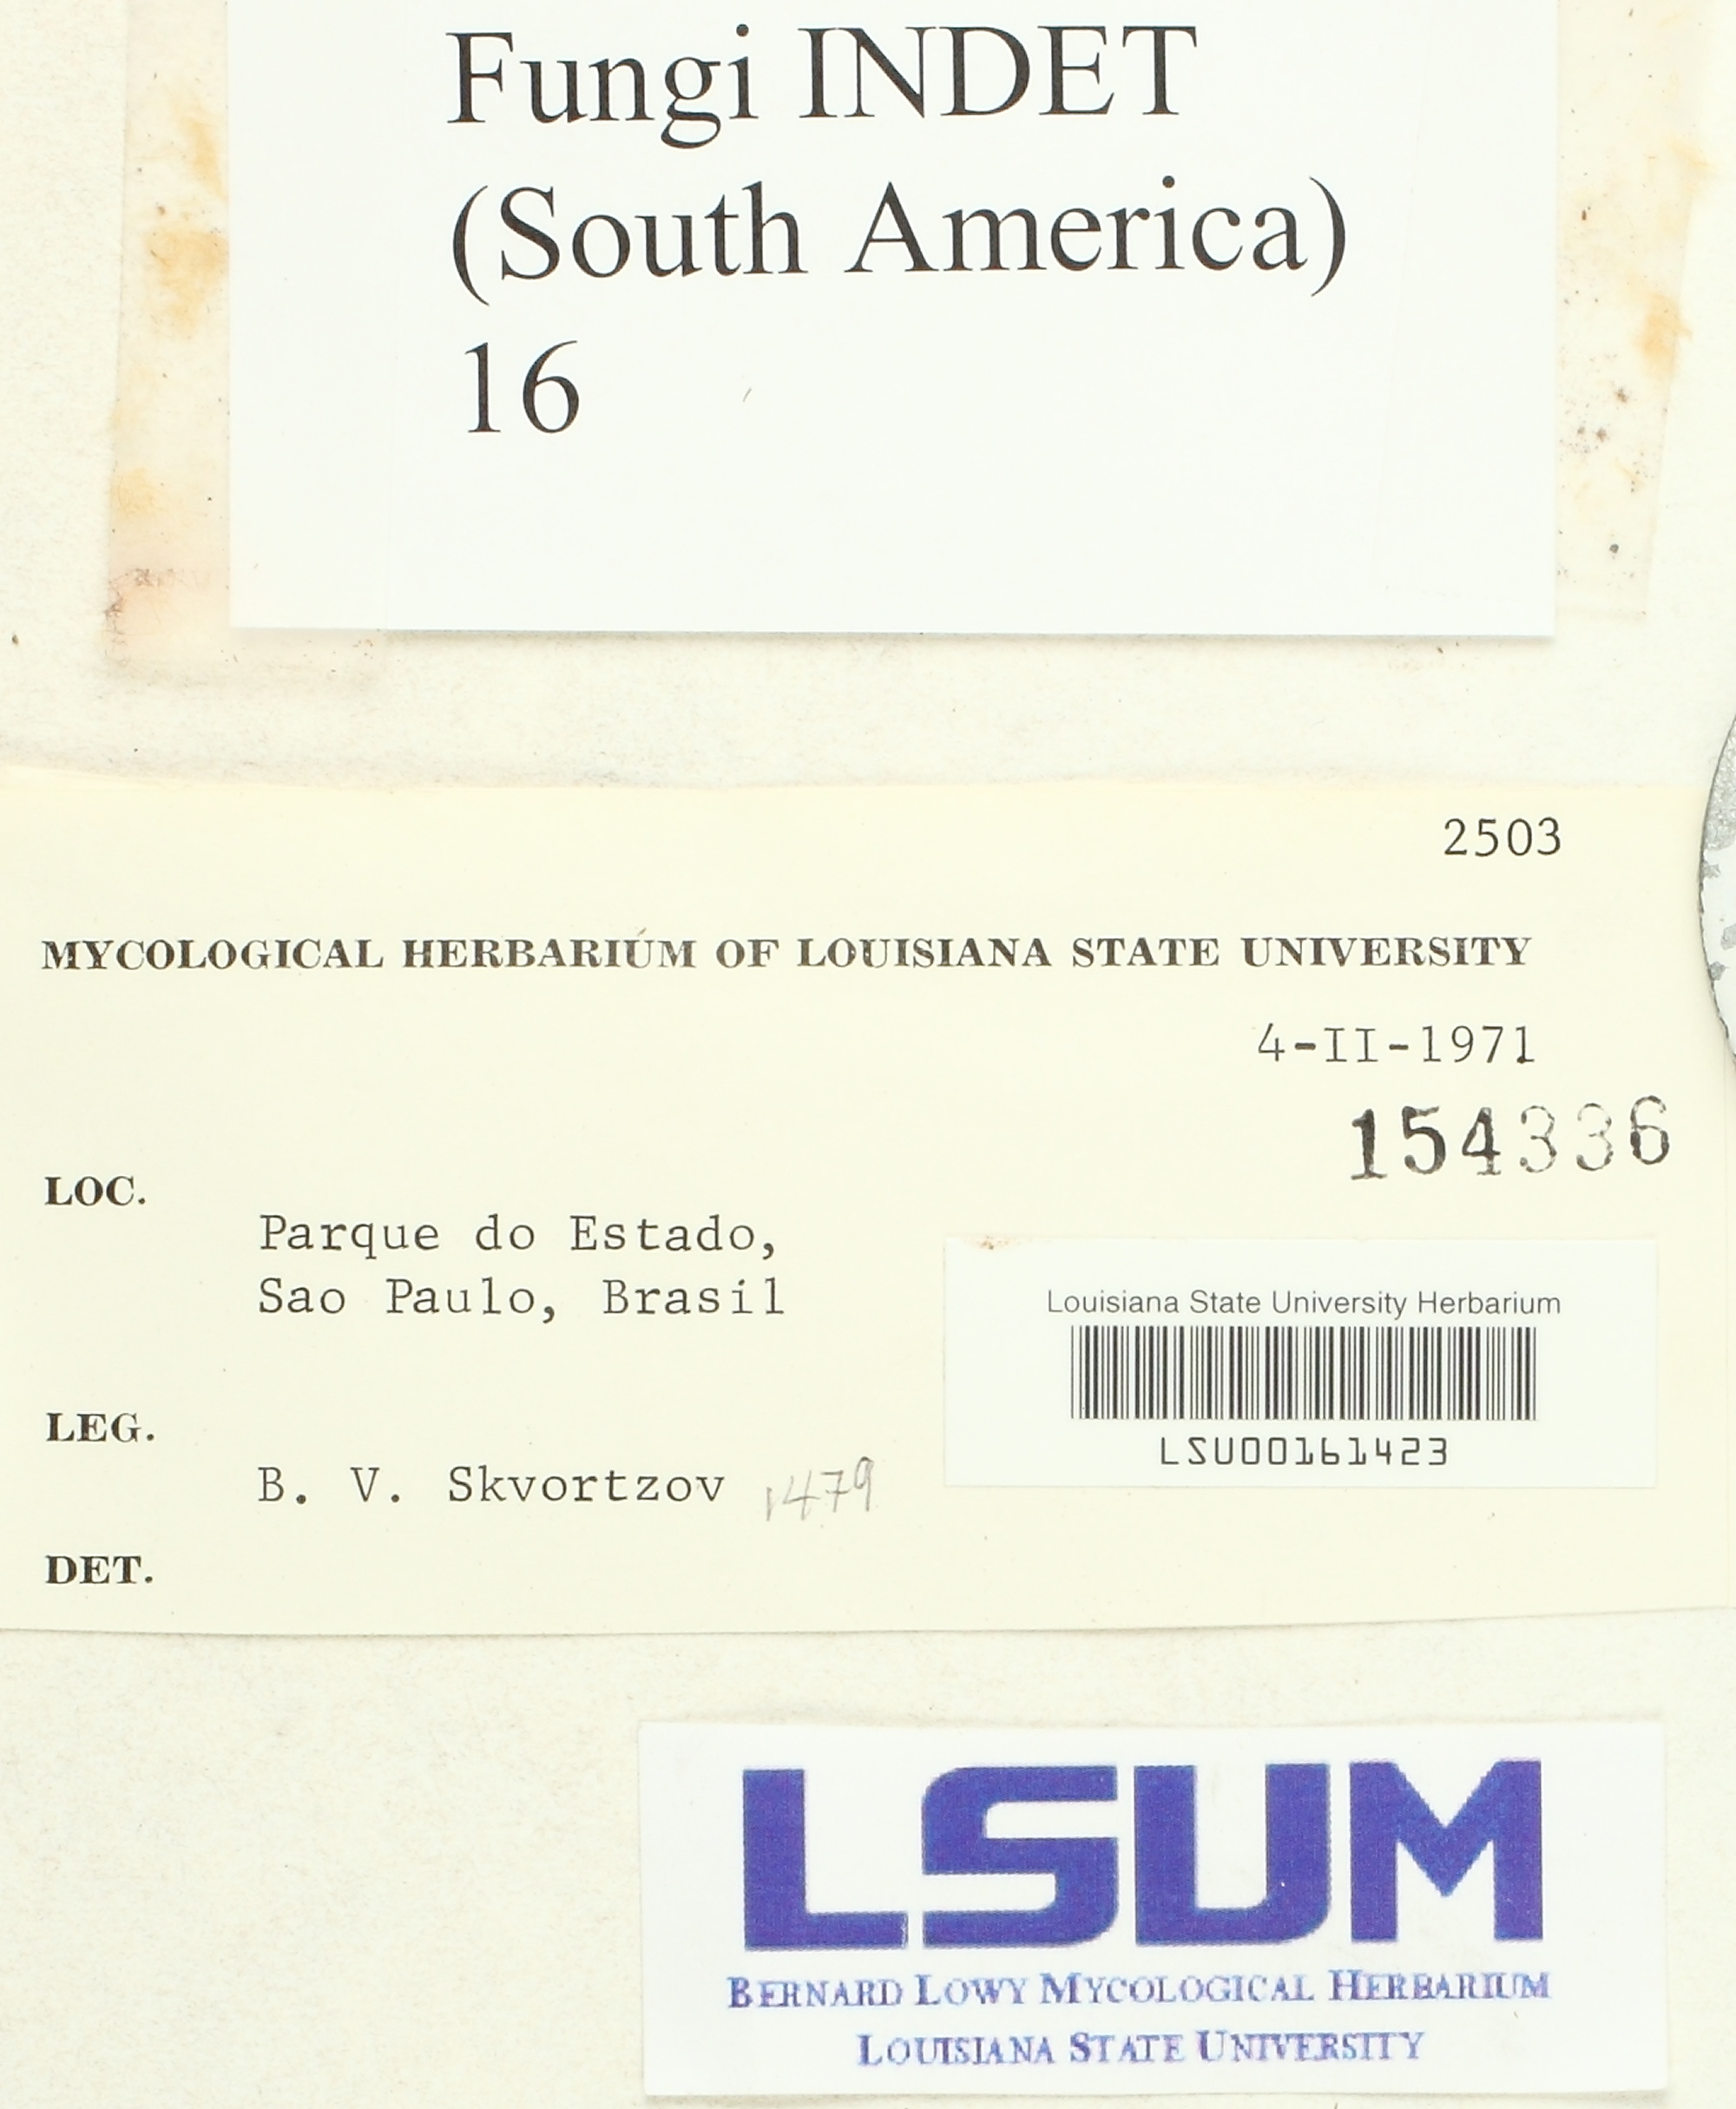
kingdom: Fungi
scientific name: Fungi
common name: Fungi
